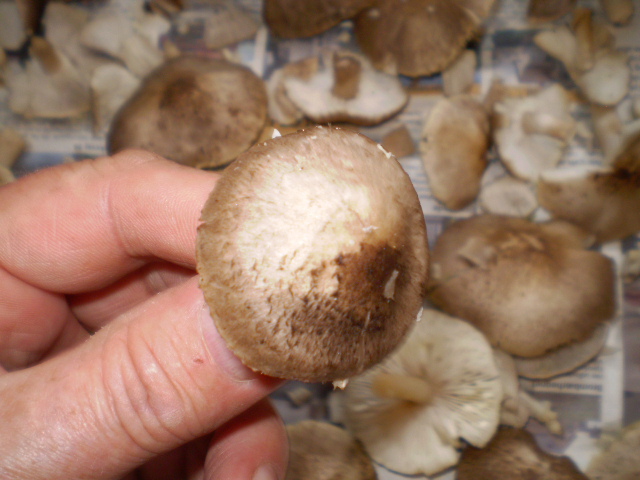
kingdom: Fungi
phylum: Basidiomycota
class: Agaricomycetes
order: Agaricales
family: Tricholomataceae
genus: Tricholoma
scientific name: Tricholoma scalpturatum
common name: gulplettet ridderhat
